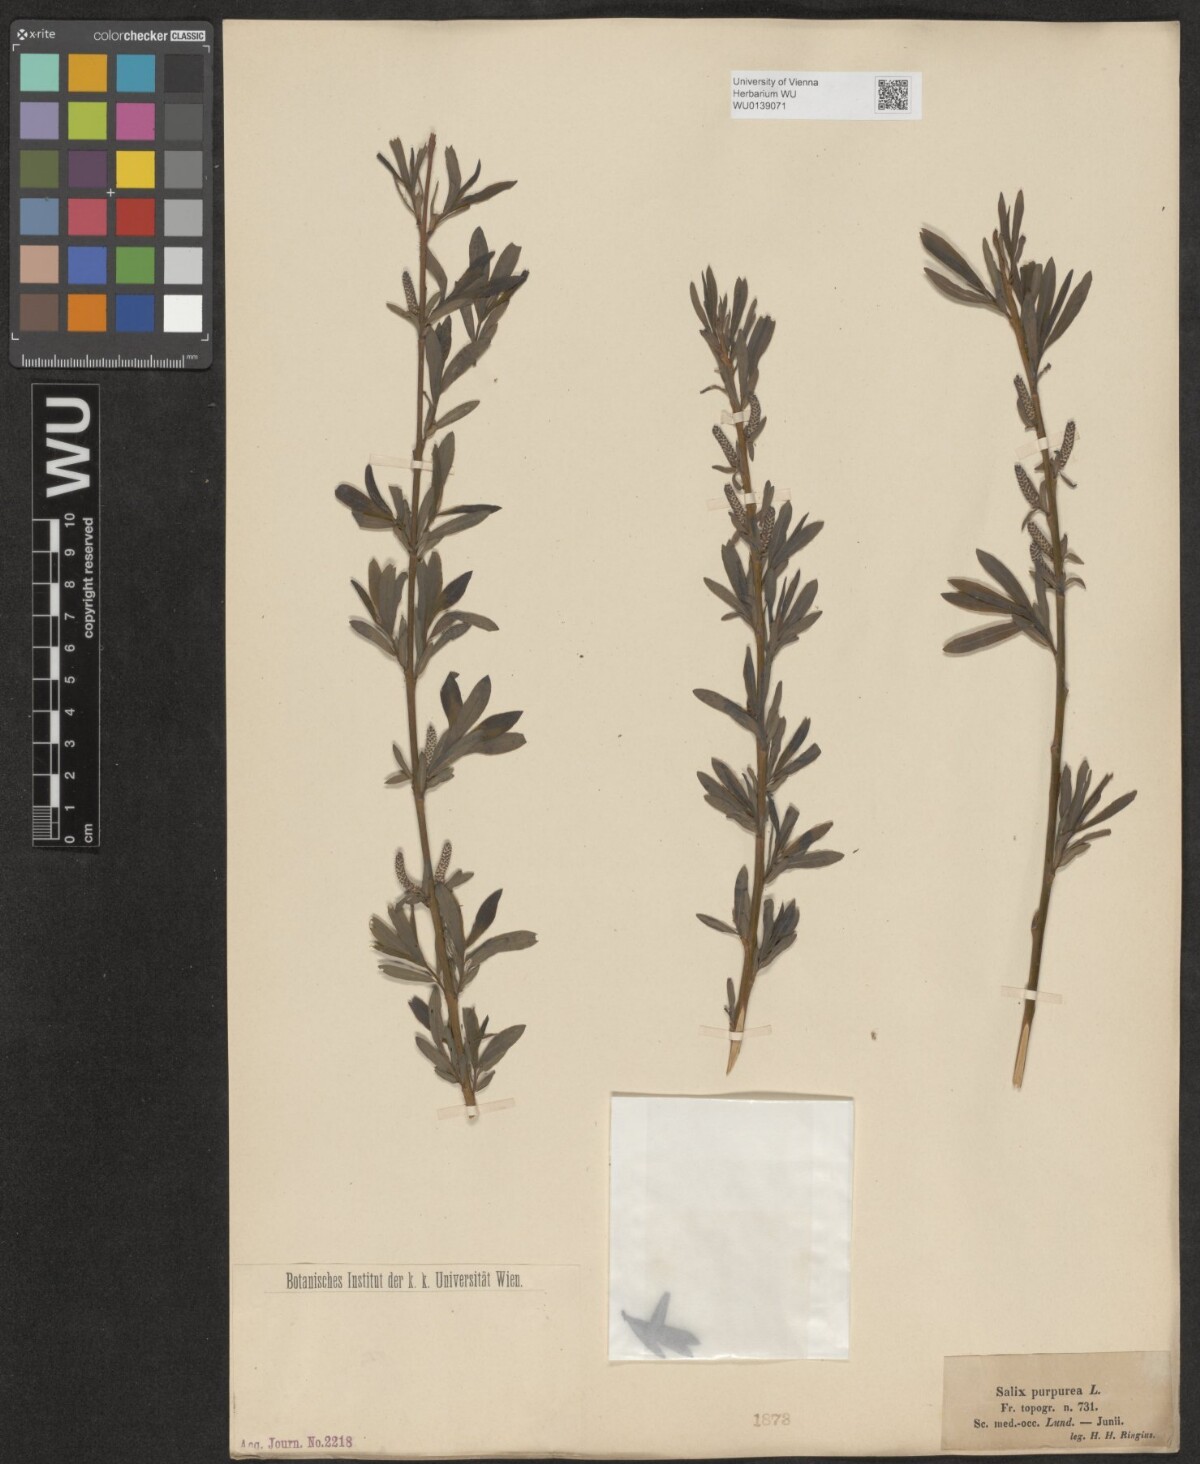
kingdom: Plantae
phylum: Tracheophyta
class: Magnoliopsida
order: Malpighiales
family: Salicaceae
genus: Salix
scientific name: Salix purpurea
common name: Purple willow
